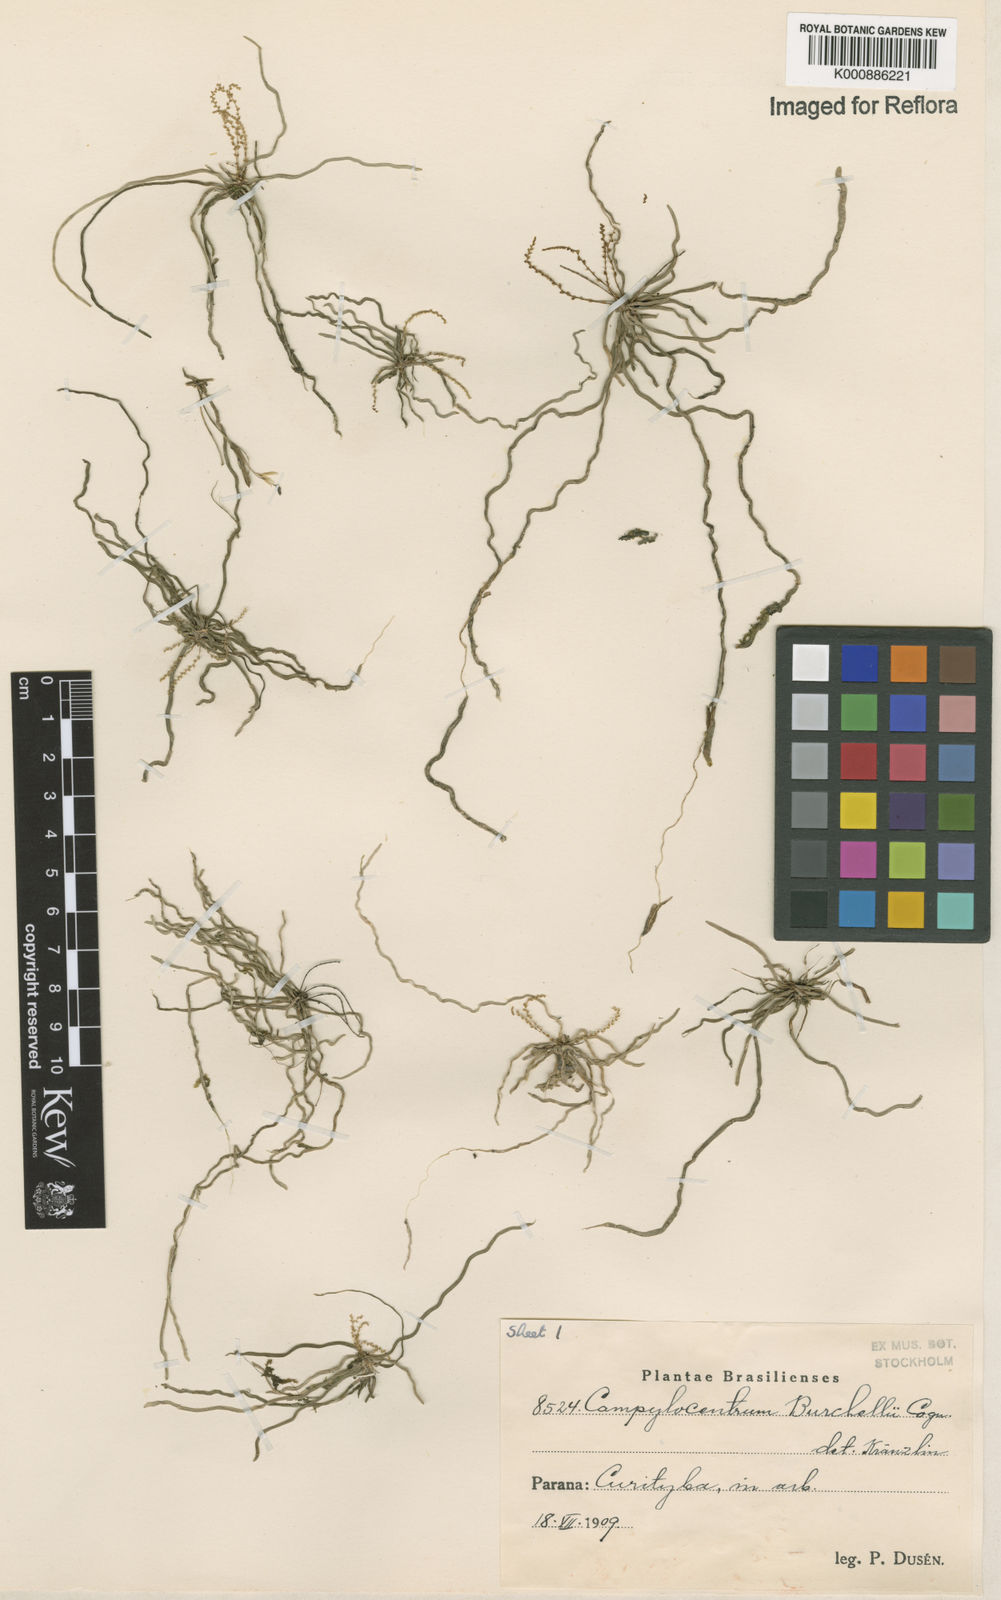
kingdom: Plantae
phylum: Tracheophyta
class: Liliopsida
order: Asparagales
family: Orchidaceae
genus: Campylocentrum
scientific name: Campylocentrum grisebachii
